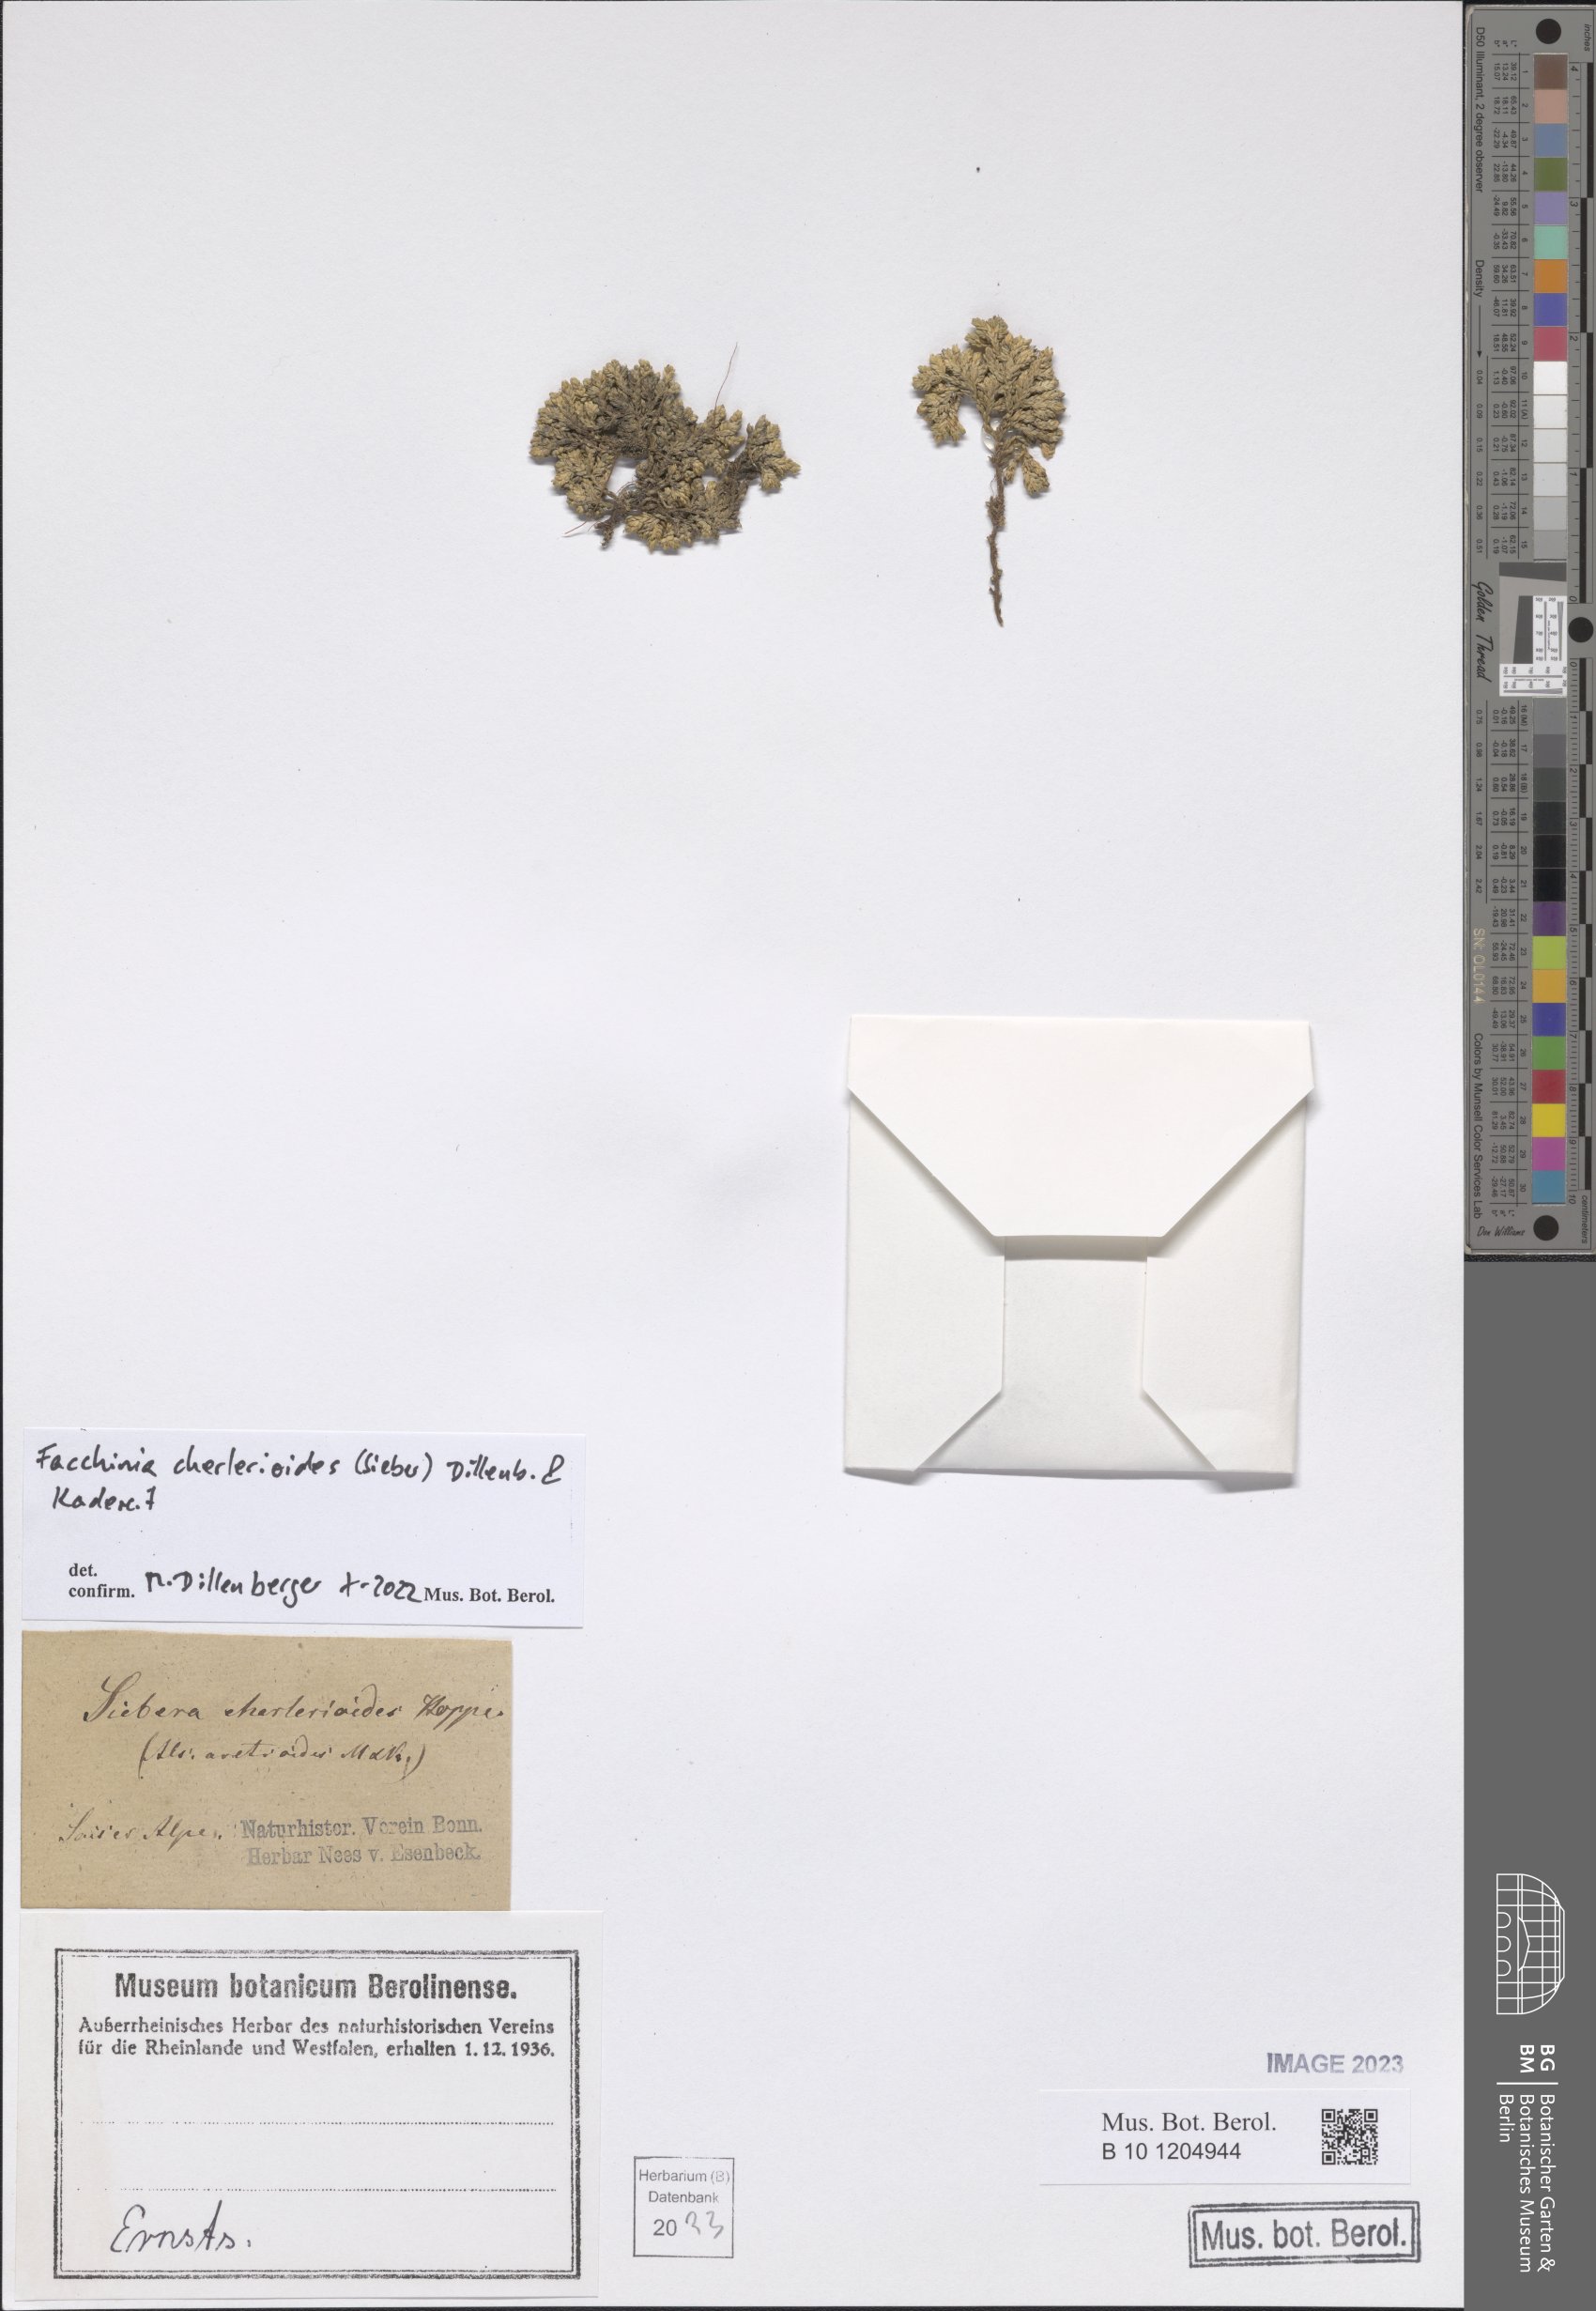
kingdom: Plantae
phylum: Tracheophyta
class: Magnoliopsida
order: Caryophyllales
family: Caryophyllaceae
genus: Facchinia
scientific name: Facchinia cherlerioides
